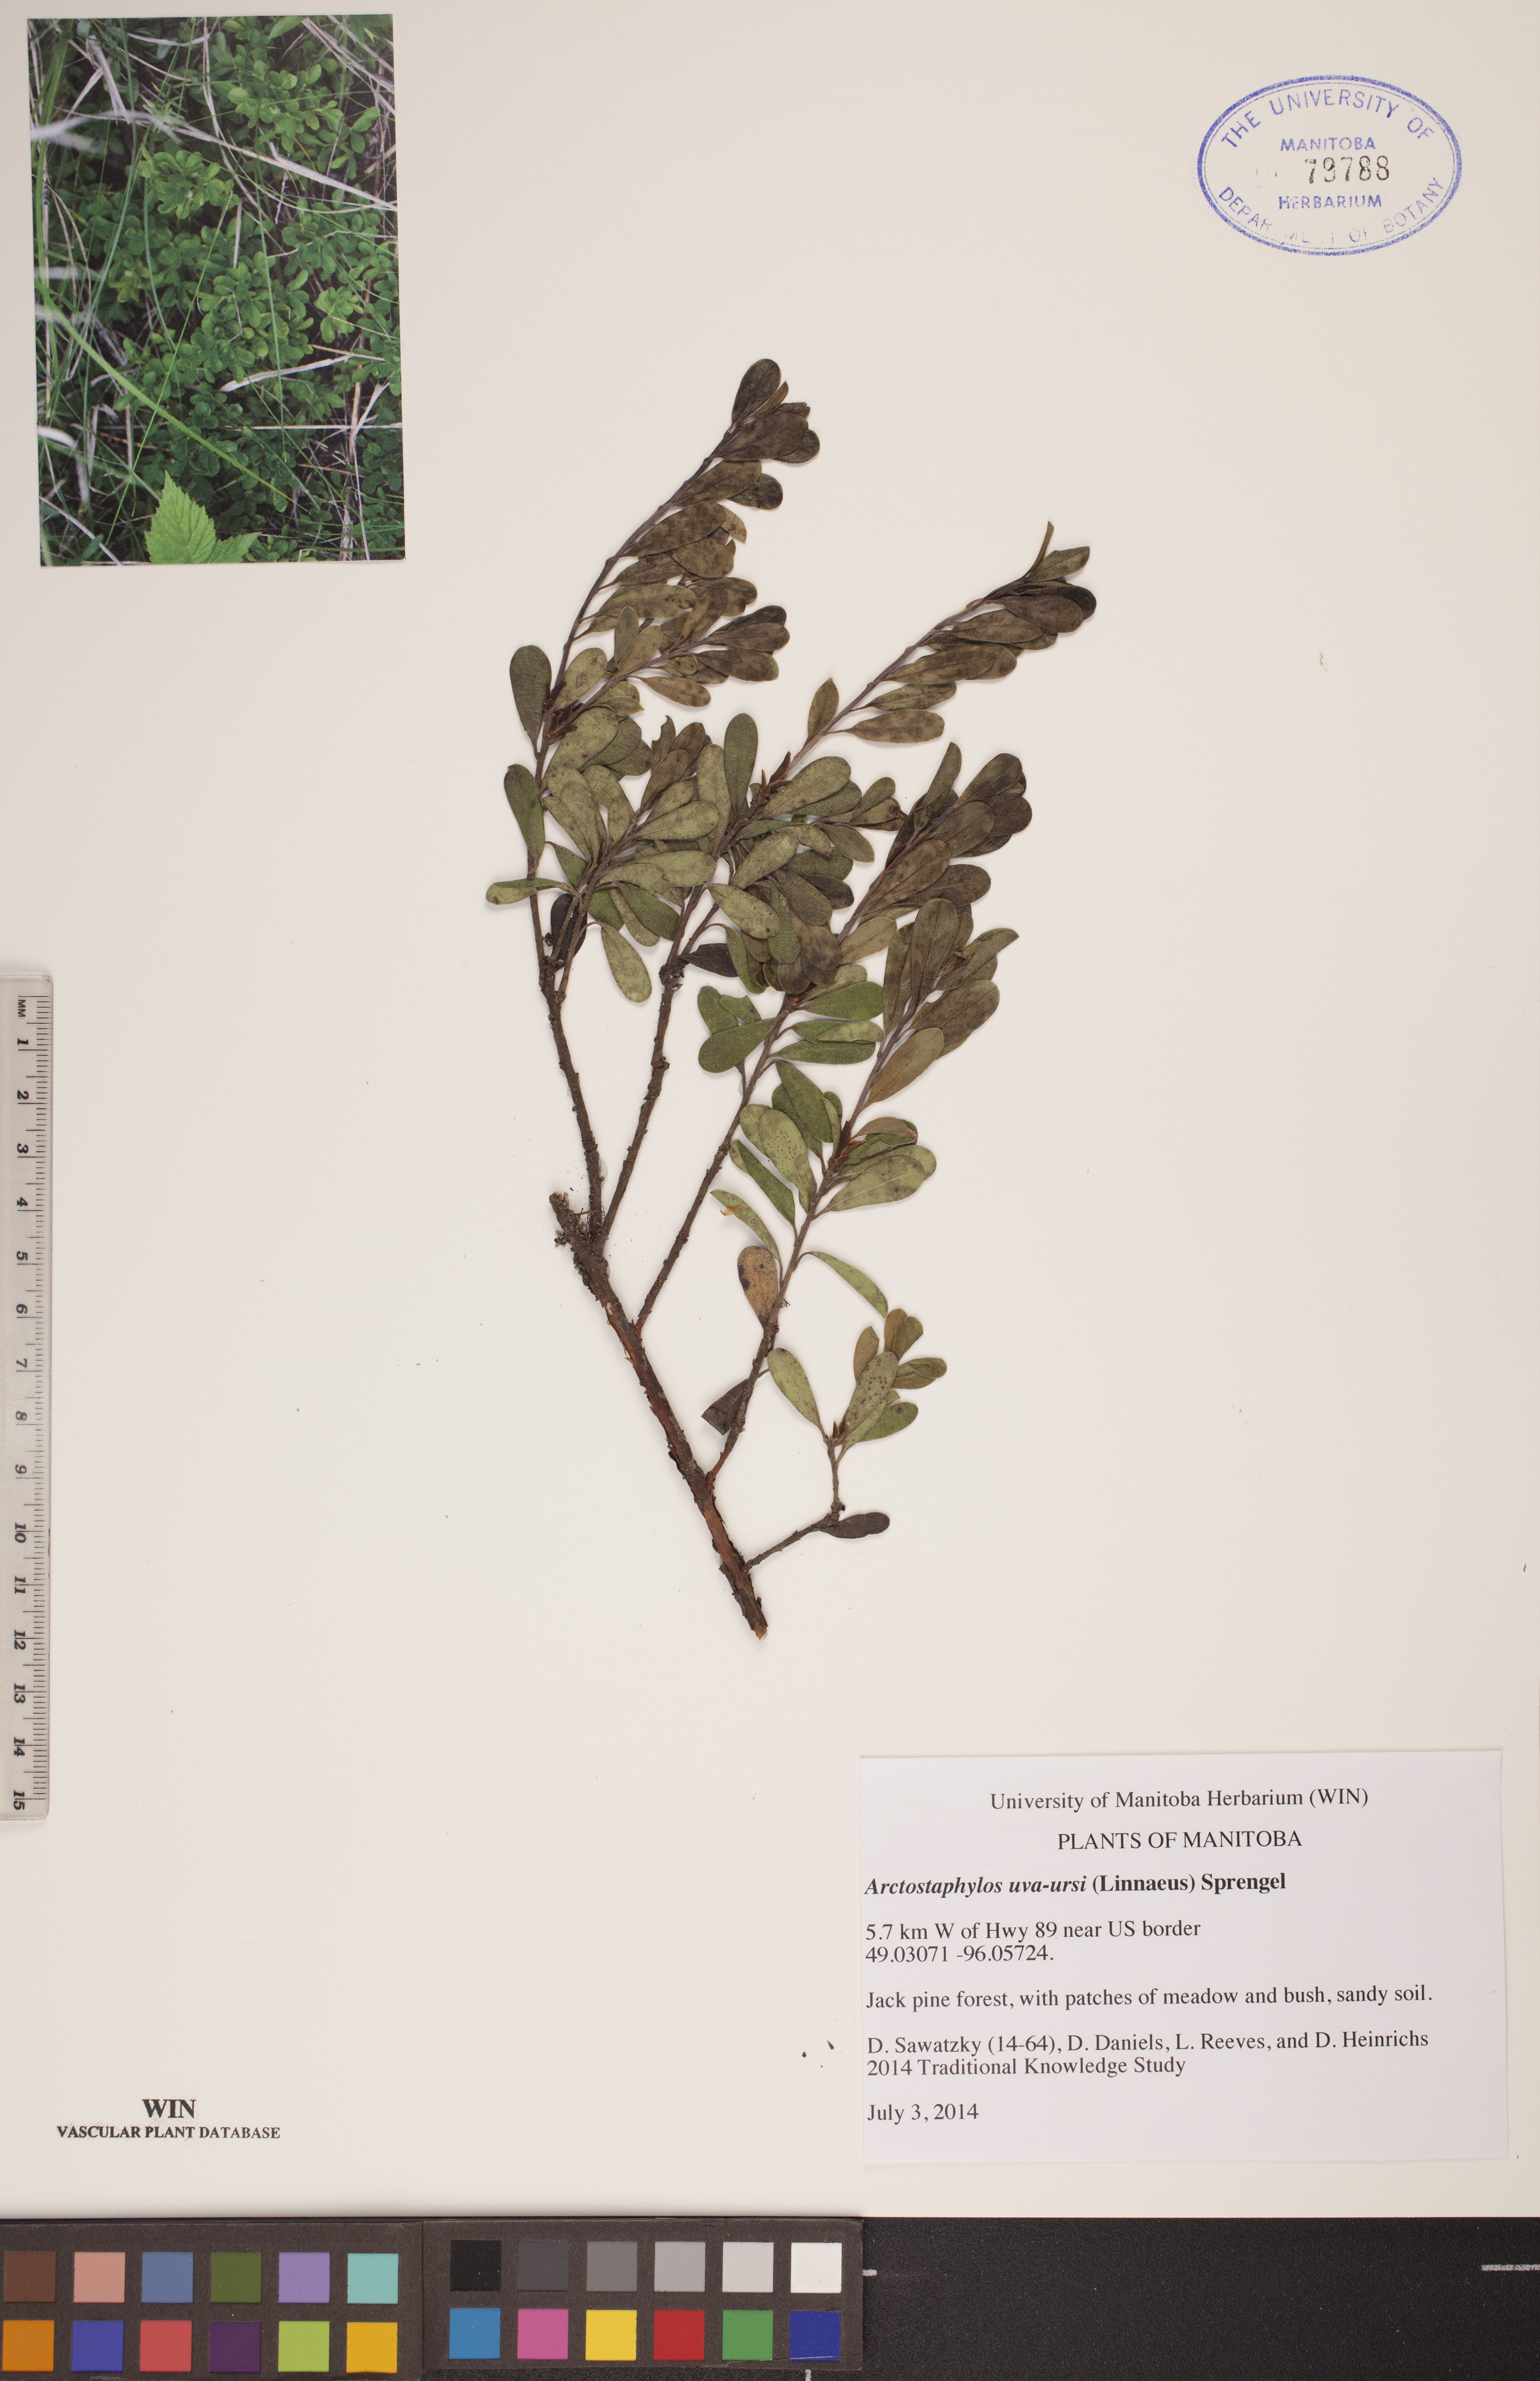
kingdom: Plantae
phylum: Tracheophyta
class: Magnoliopsida
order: Ericales
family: Ericaceae
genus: Arctostaphylos
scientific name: Arctostaphylos uva-ursi
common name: Bearberry
